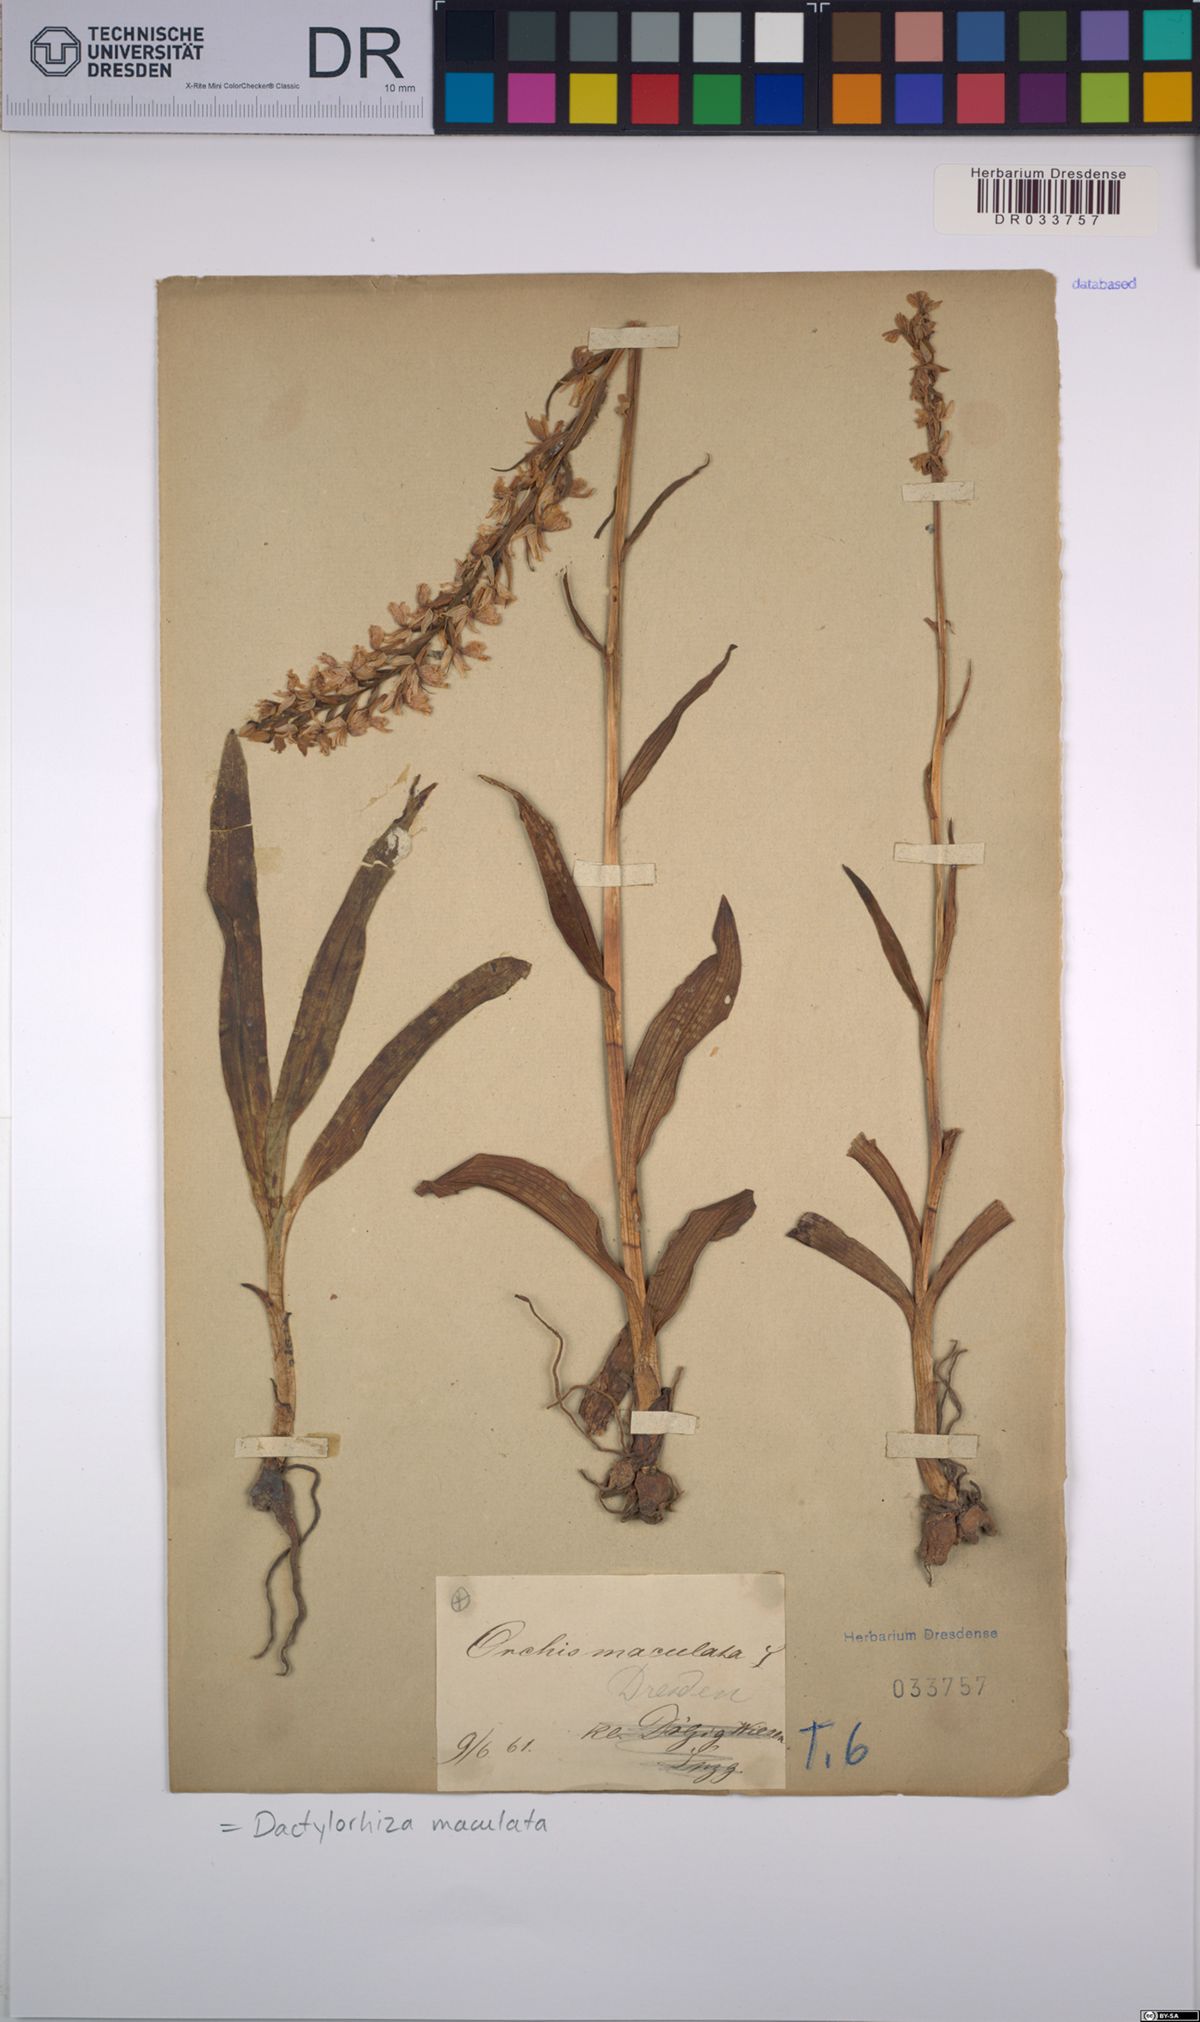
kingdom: Plantae
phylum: Tracheophyta
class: Liliopsida
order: Asparagales
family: Orchidaceae
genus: Dactylorhiza
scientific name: Dactylorhiza maculata
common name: Heath spotted-orchid
